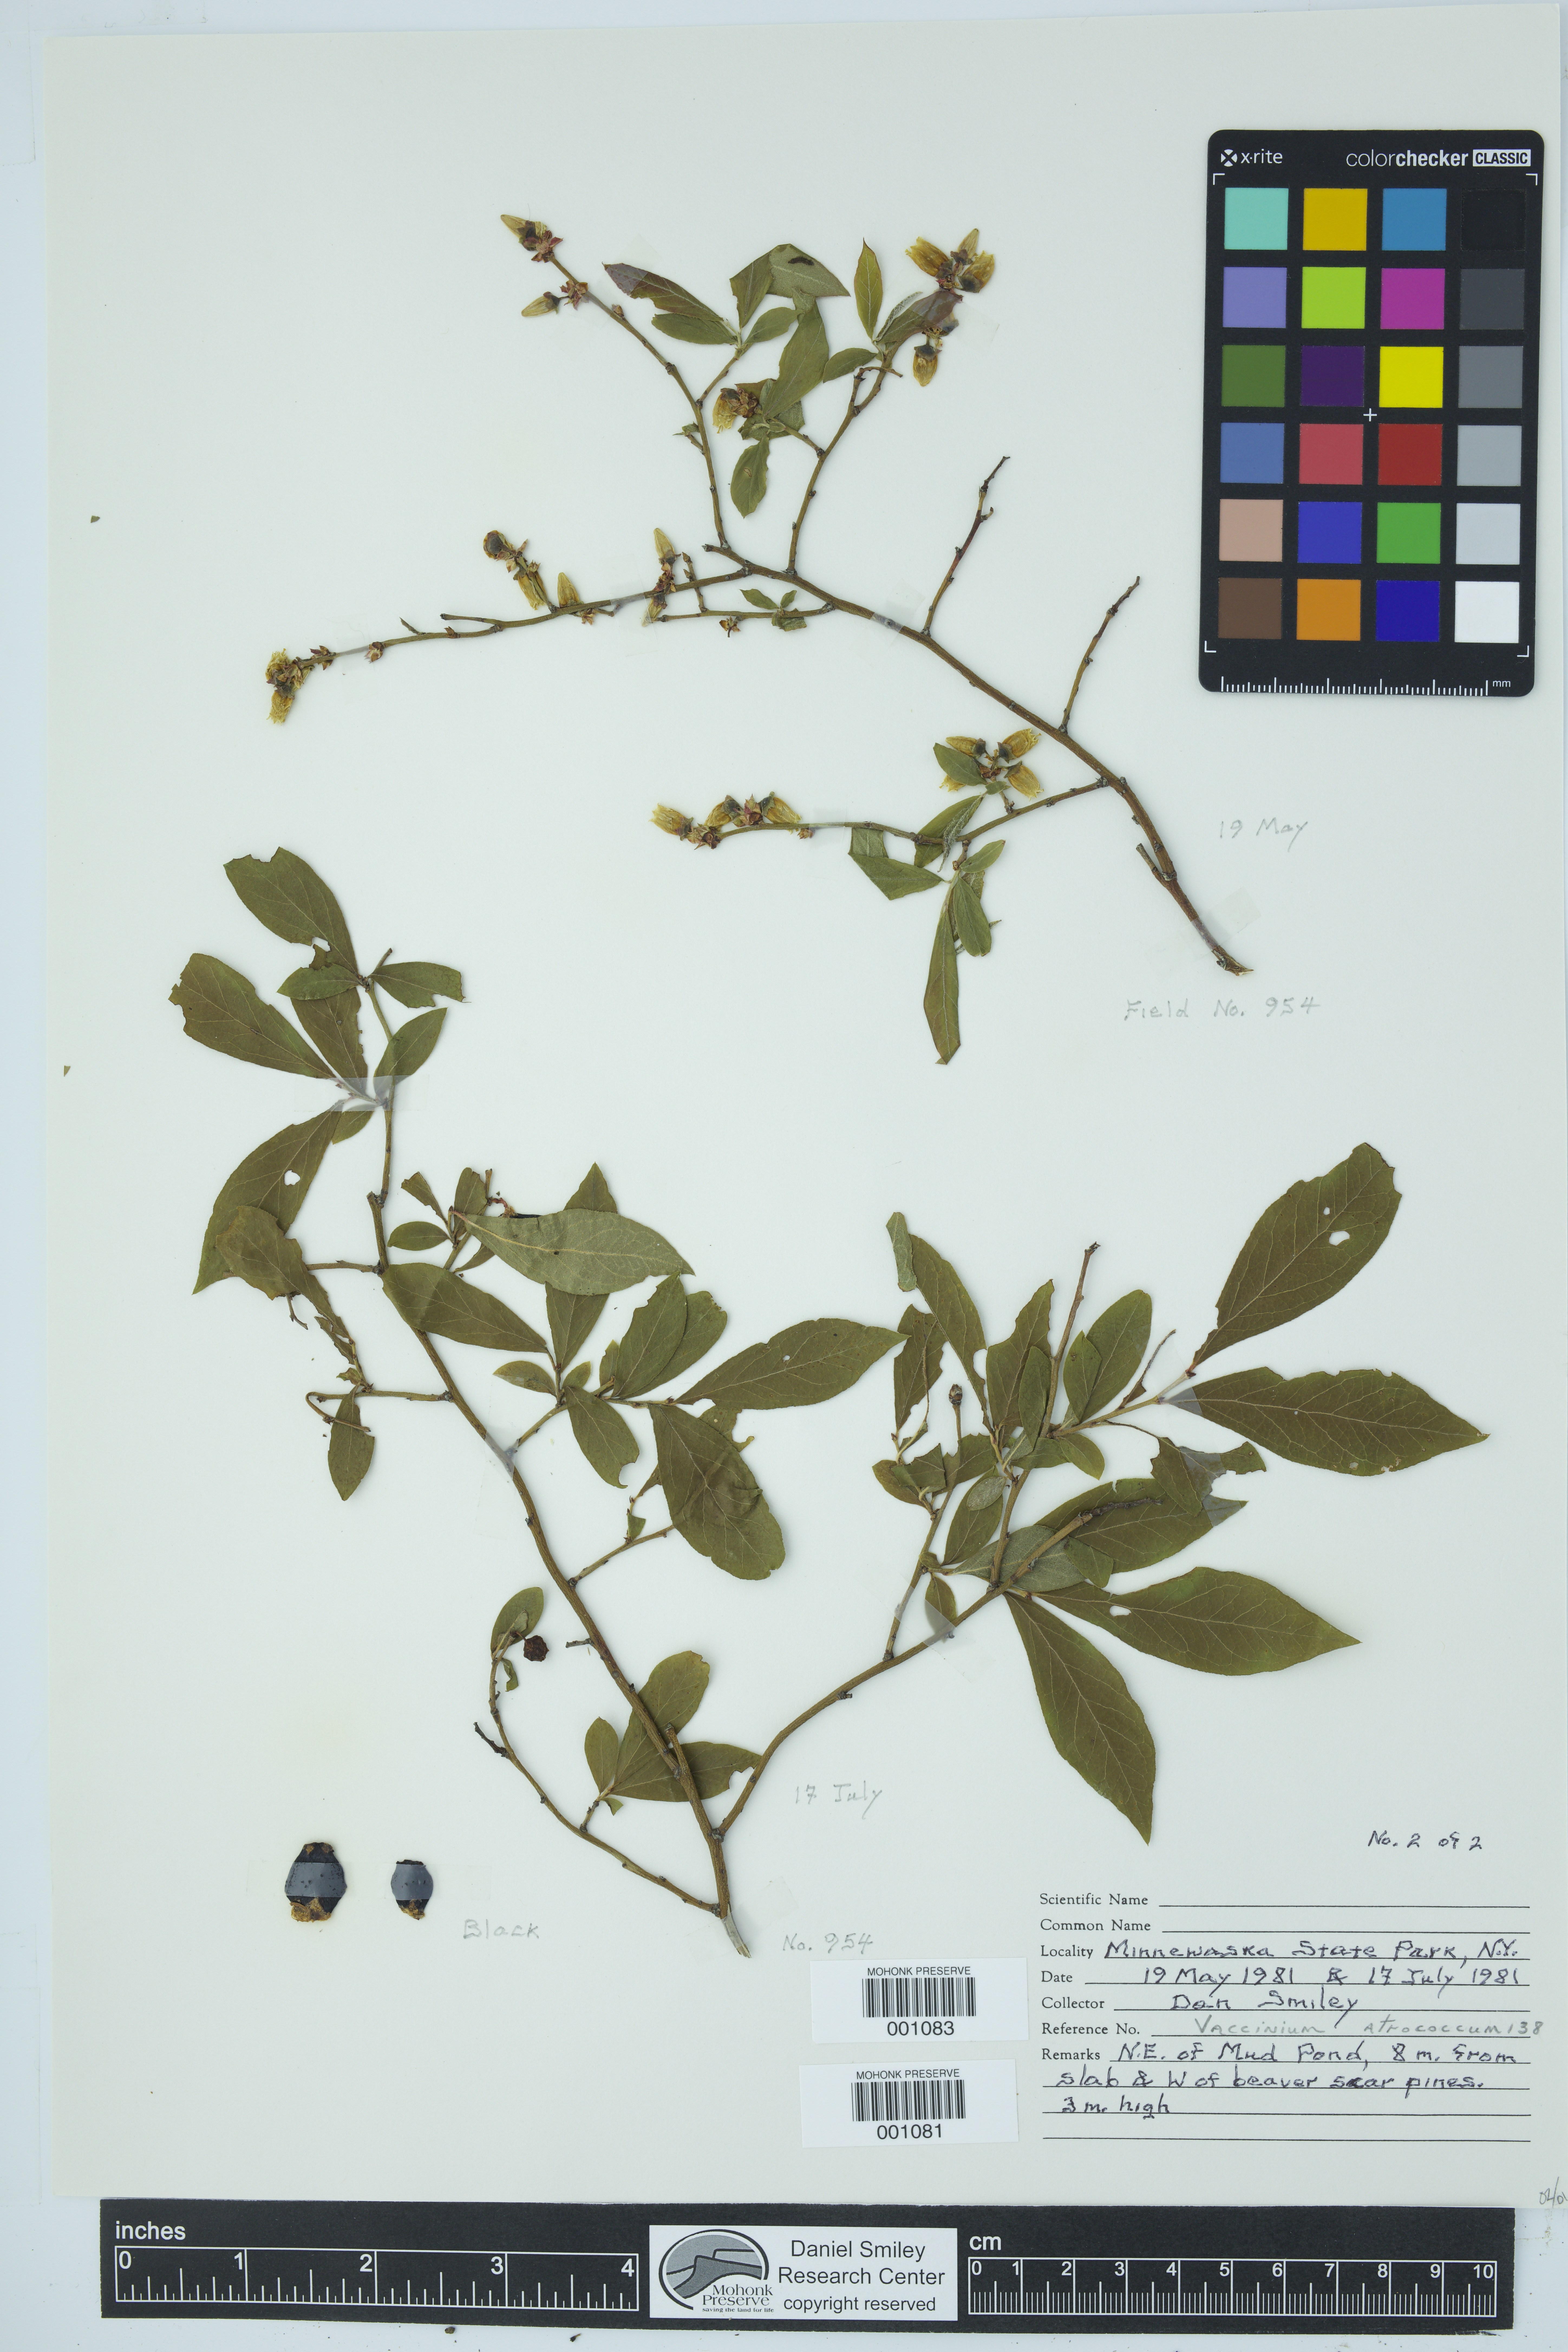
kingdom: Plantae
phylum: Tracheophyta
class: Magnoliopsida
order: Ericales
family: Ericaceae
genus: Vaccinium
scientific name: Vaccinium corymbosum
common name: Blueberry
